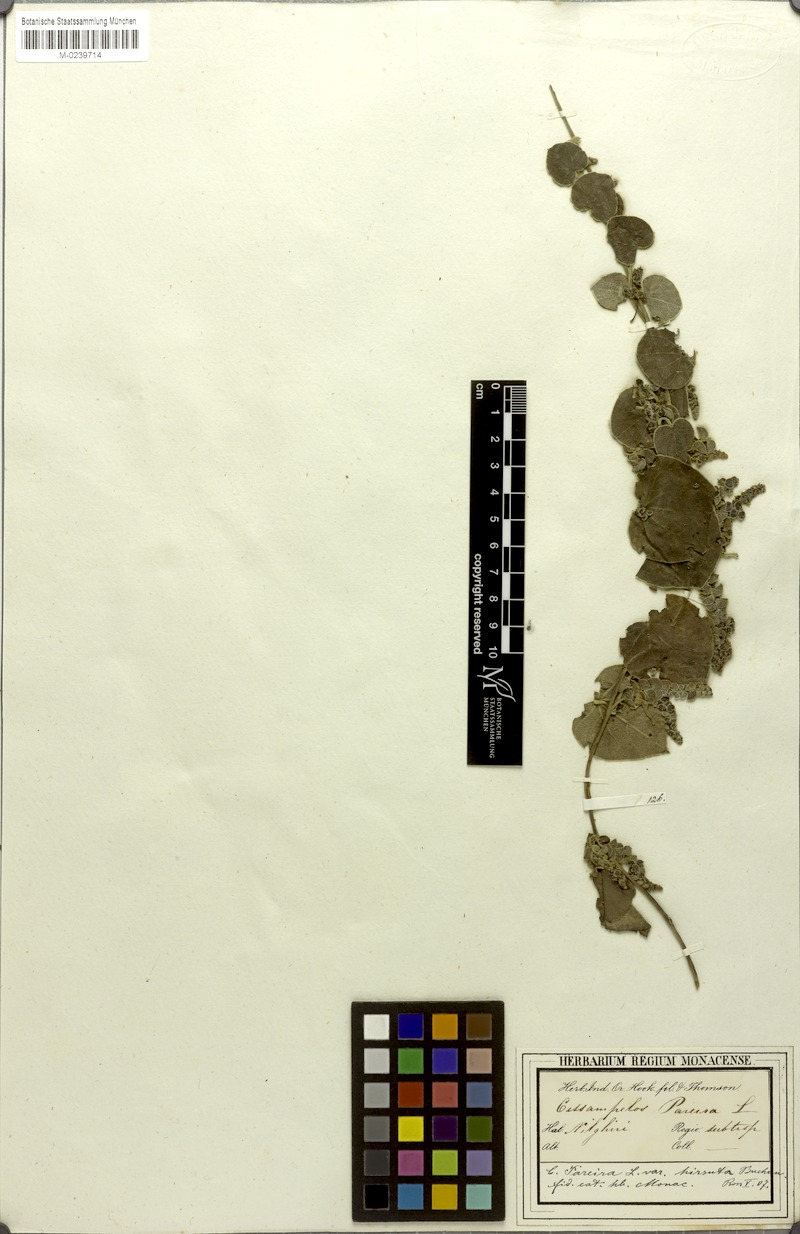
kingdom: Plantae
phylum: Tracheophyta
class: Magnoliopsida
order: Ranunculales
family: Menispermaceae
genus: Cissampelos
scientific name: Cissampelos pareira
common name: Velvetleaf
